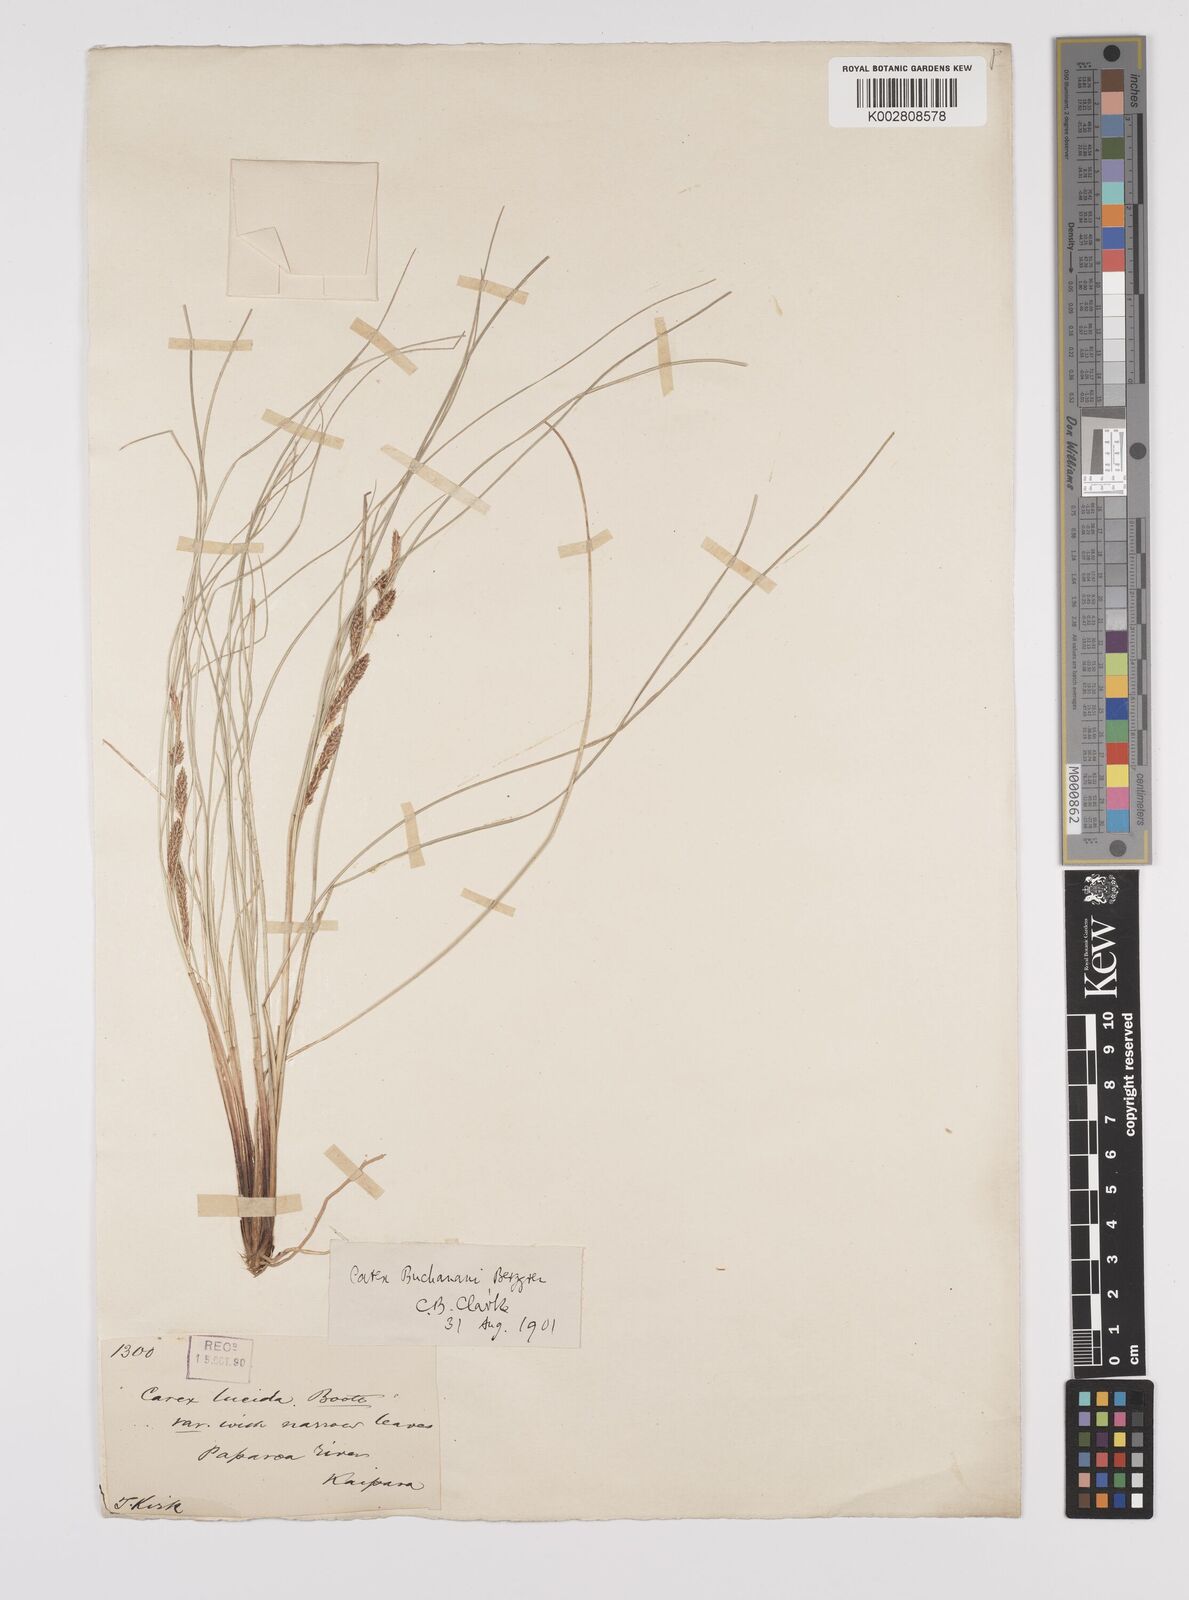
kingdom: Plantae
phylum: Tracheophyta
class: Liliopsida
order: Poales
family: Cyperaceae
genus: Carex
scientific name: Carex flagellifera
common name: Glen murray tussock
